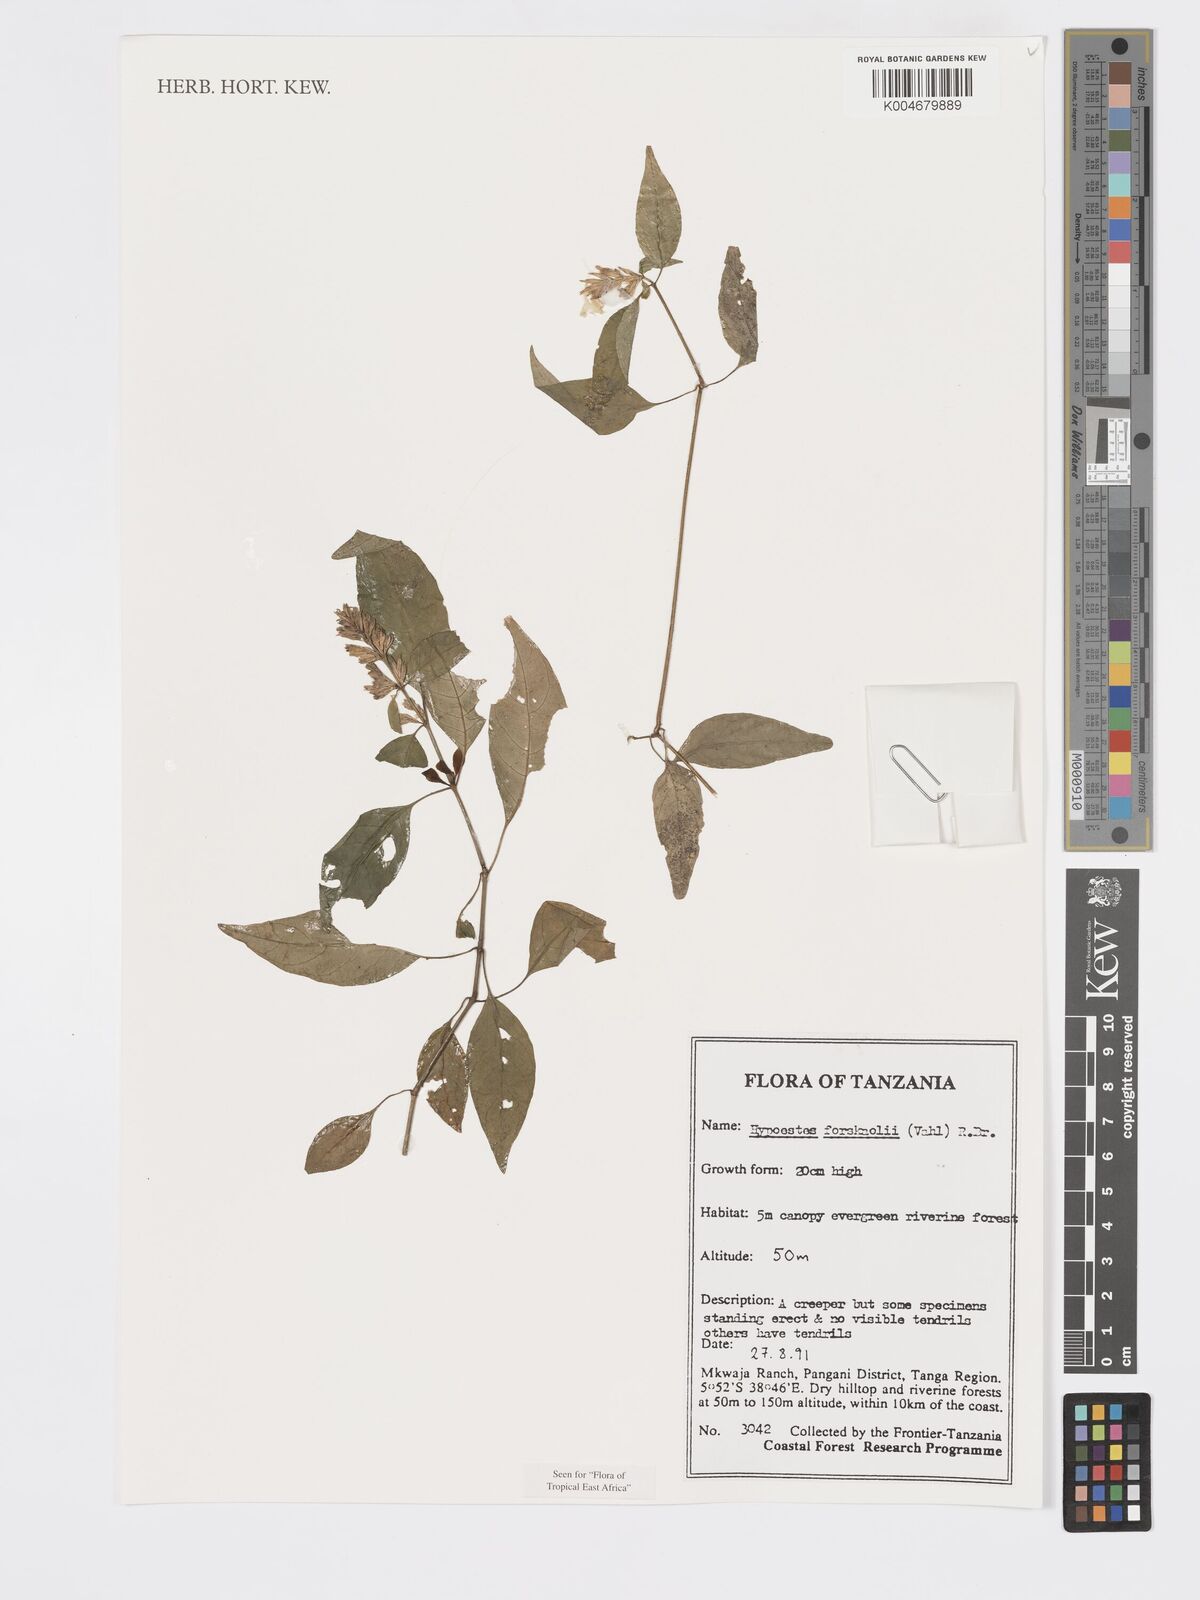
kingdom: Plantae
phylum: Tracheophyta
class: Magnoliopsida
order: Lamiales
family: Acanthaceae
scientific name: Acanthaceae
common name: Acanthaceae
